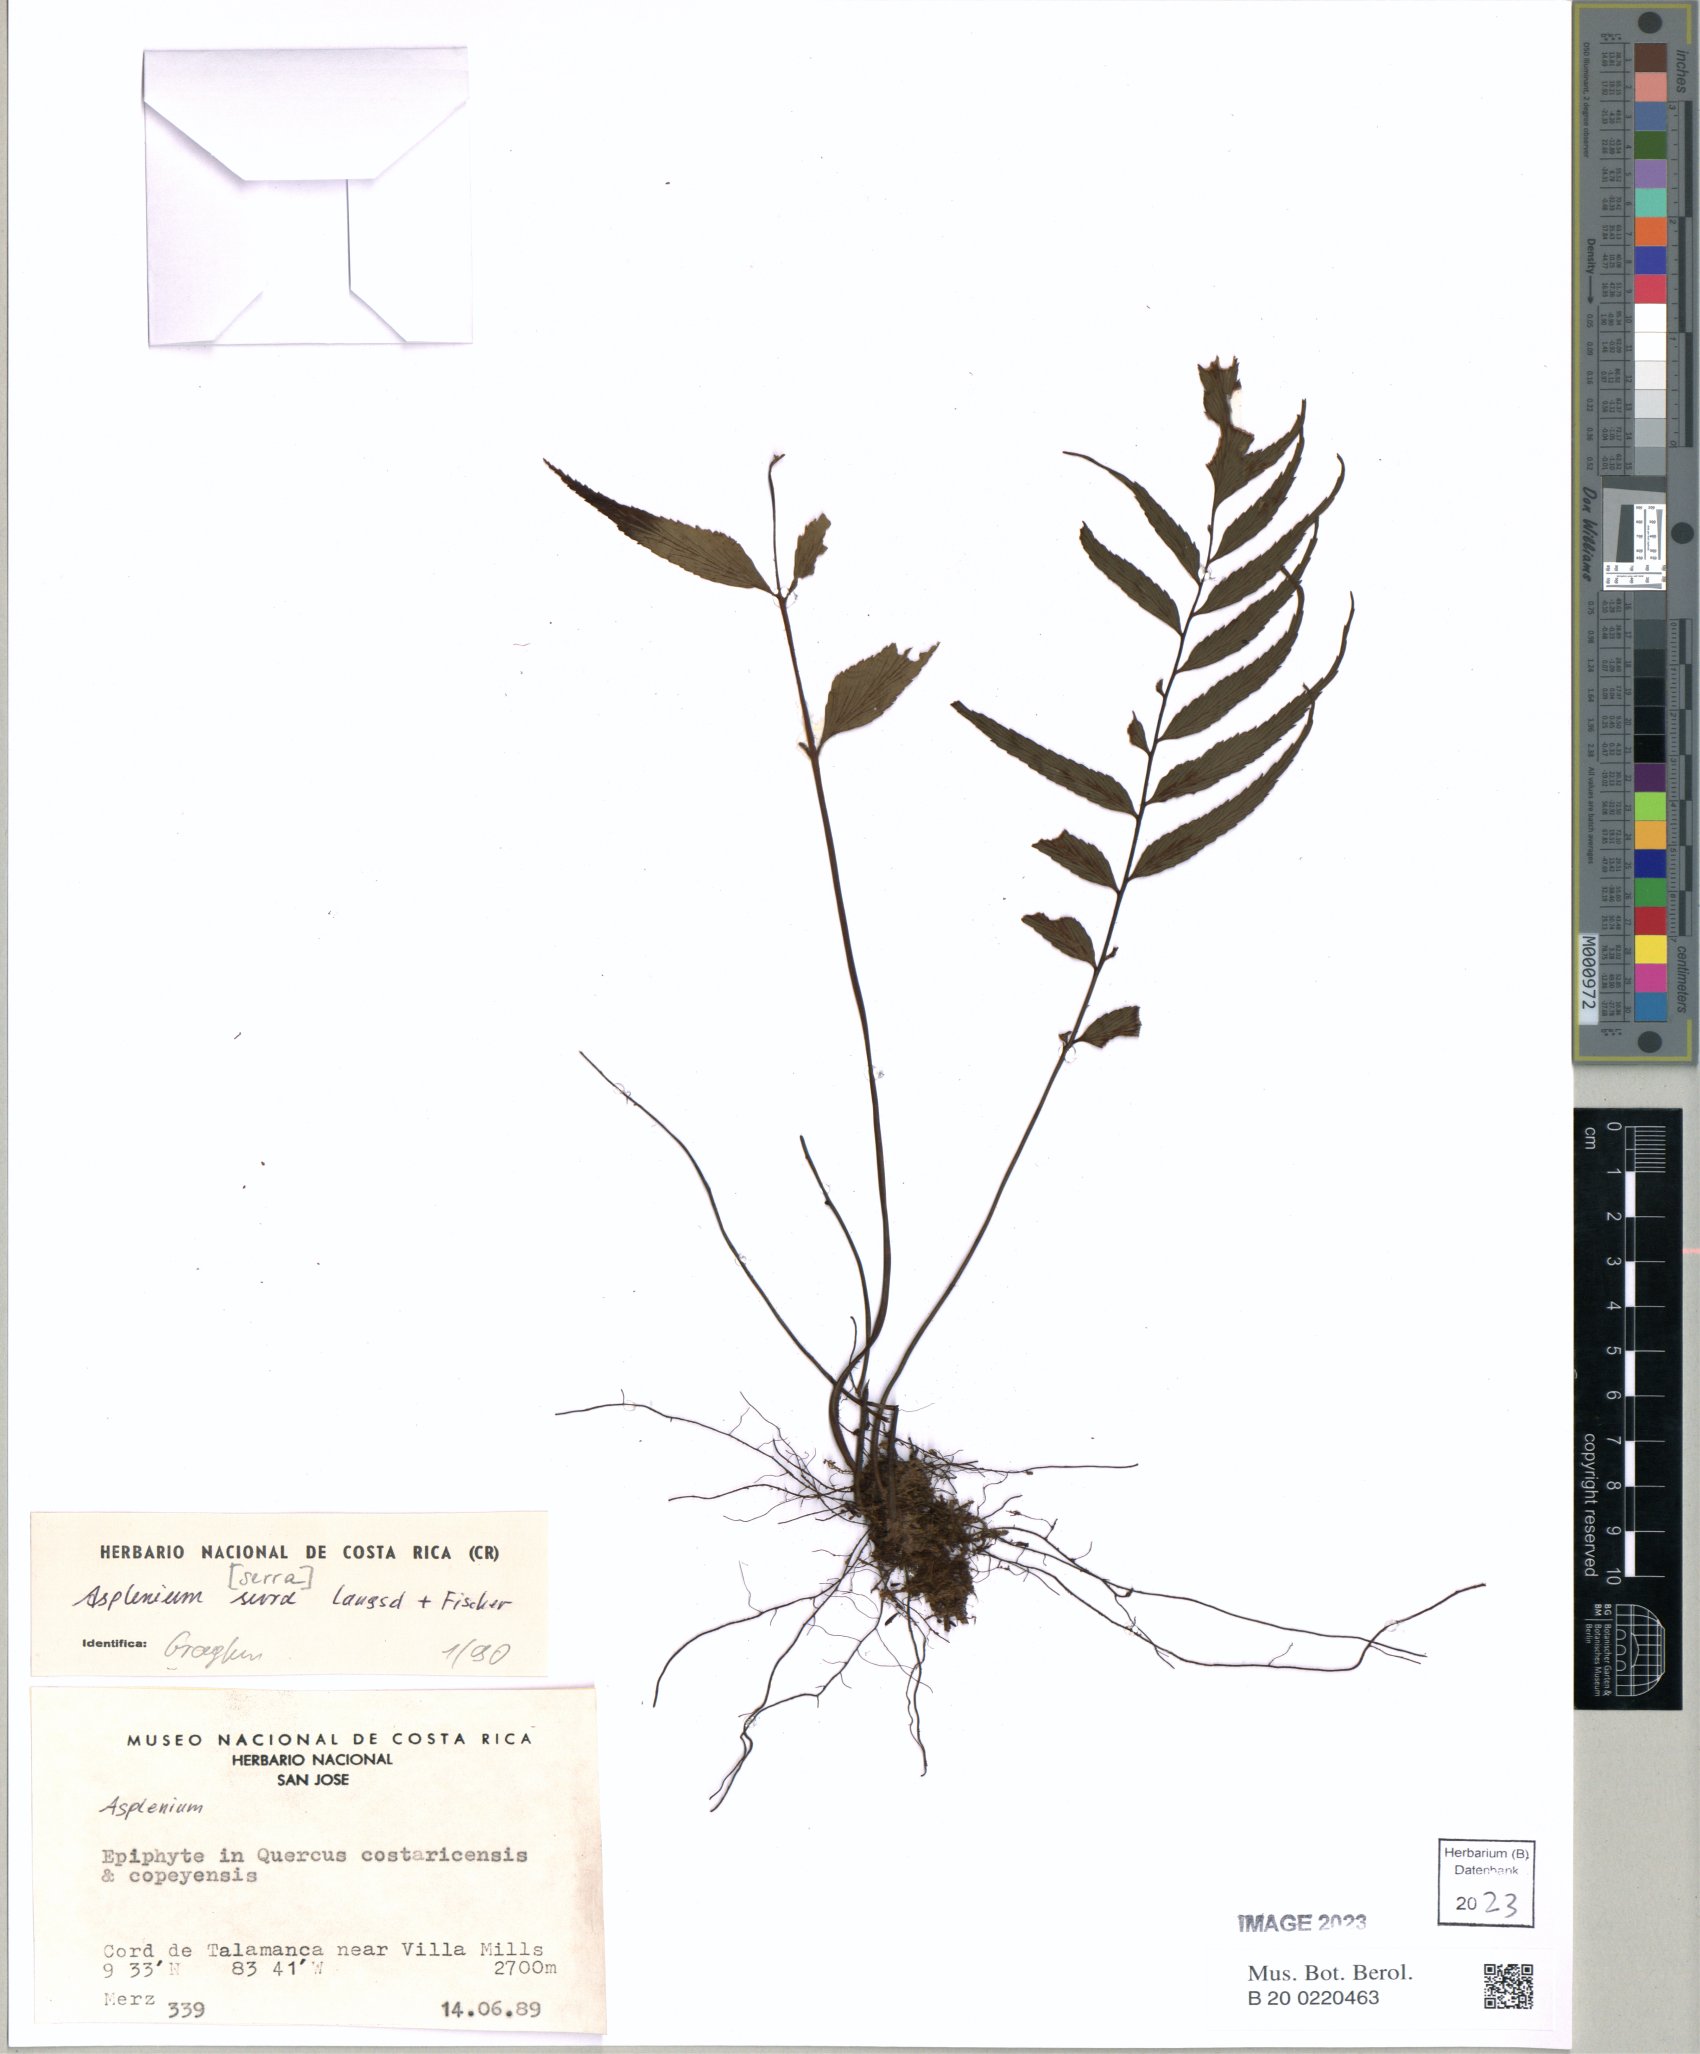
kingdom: Plantae
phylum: Tracheophyta
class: Polypodiopsida
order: Polypodiales
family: Aspleniaceae
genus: Asplenium
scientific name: Asplenium serra
